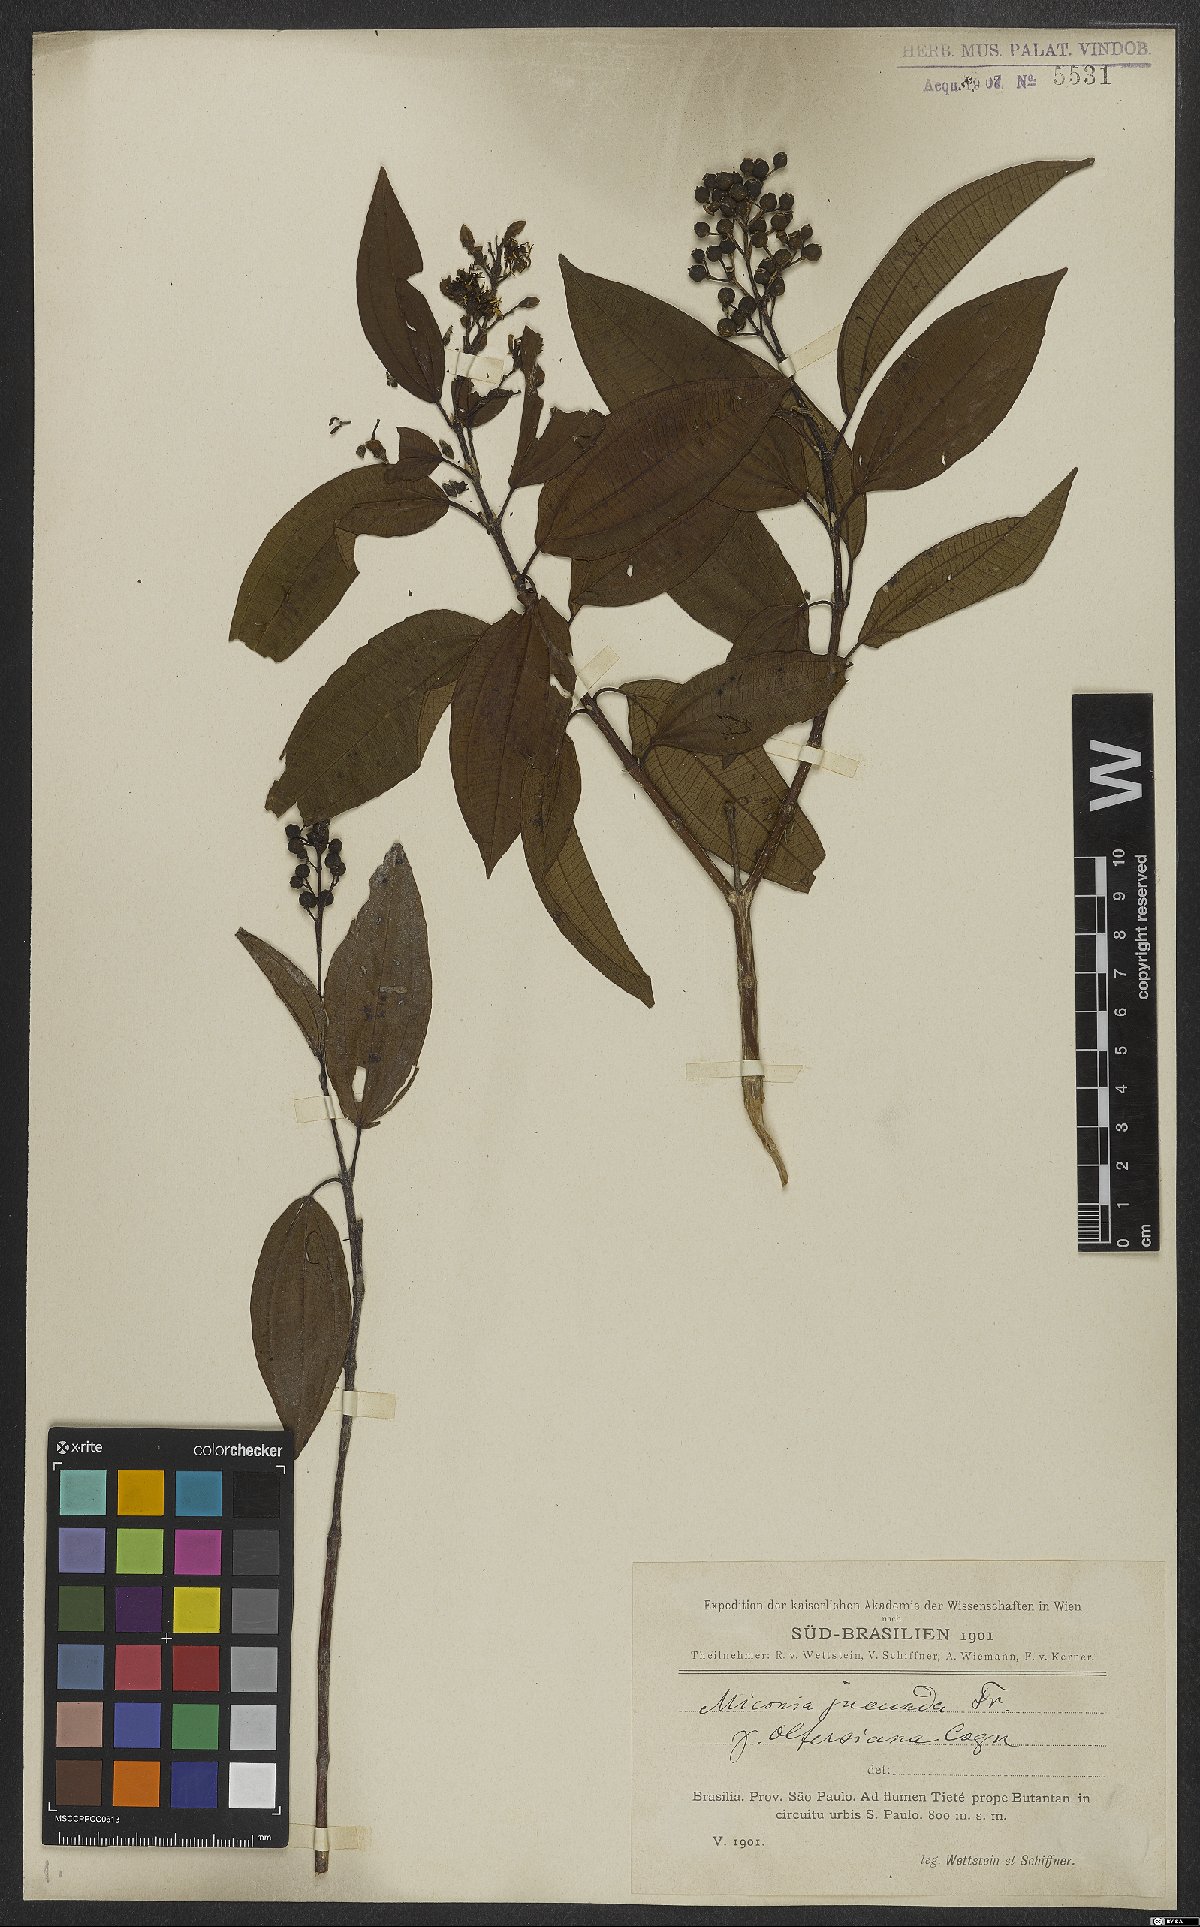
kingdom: Plantae
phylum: Tracheophyta
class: Magnoliopsida
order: Myrtales
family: Melastomataceae
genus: Miconia
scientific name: Miconia jucunda
